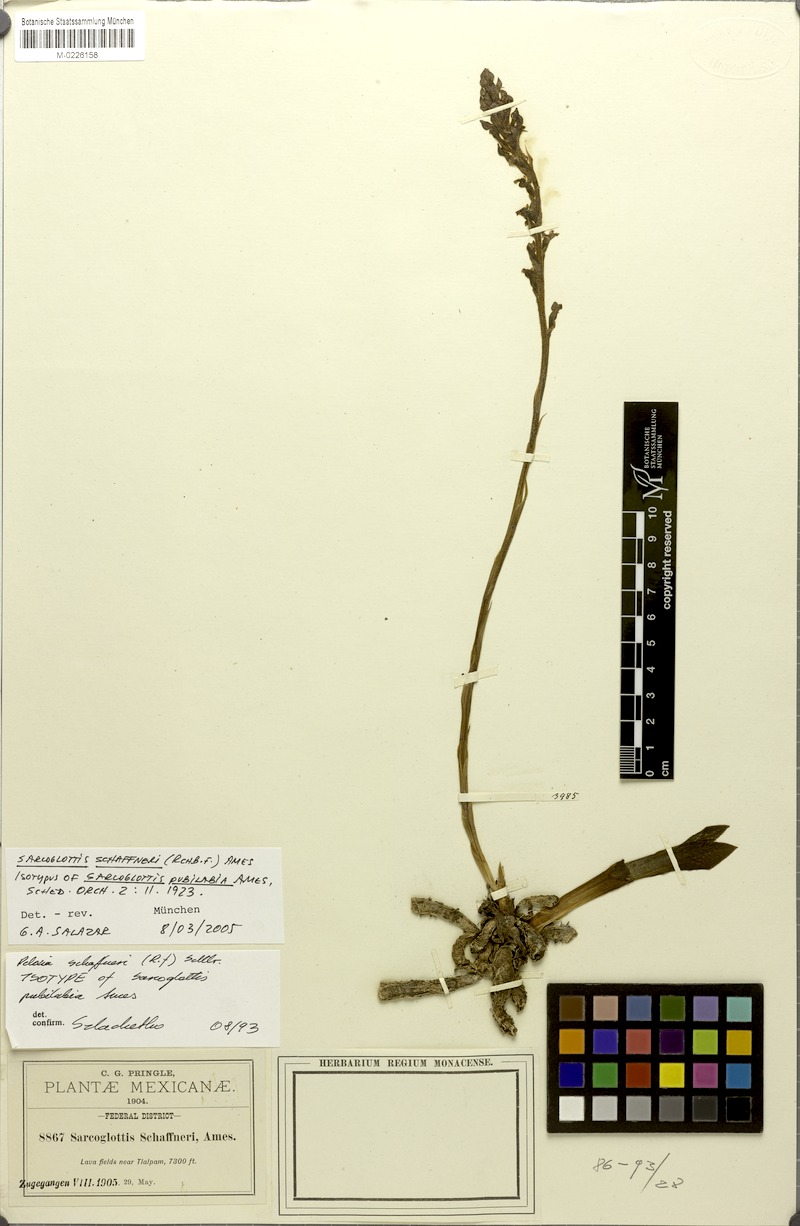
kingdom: Plantae
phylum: Tracheophyta
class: Liliopsida
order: Asparagales
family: Orchidaceae
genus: Sarcoglottis
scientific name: Sarcoglottis schaffneri
